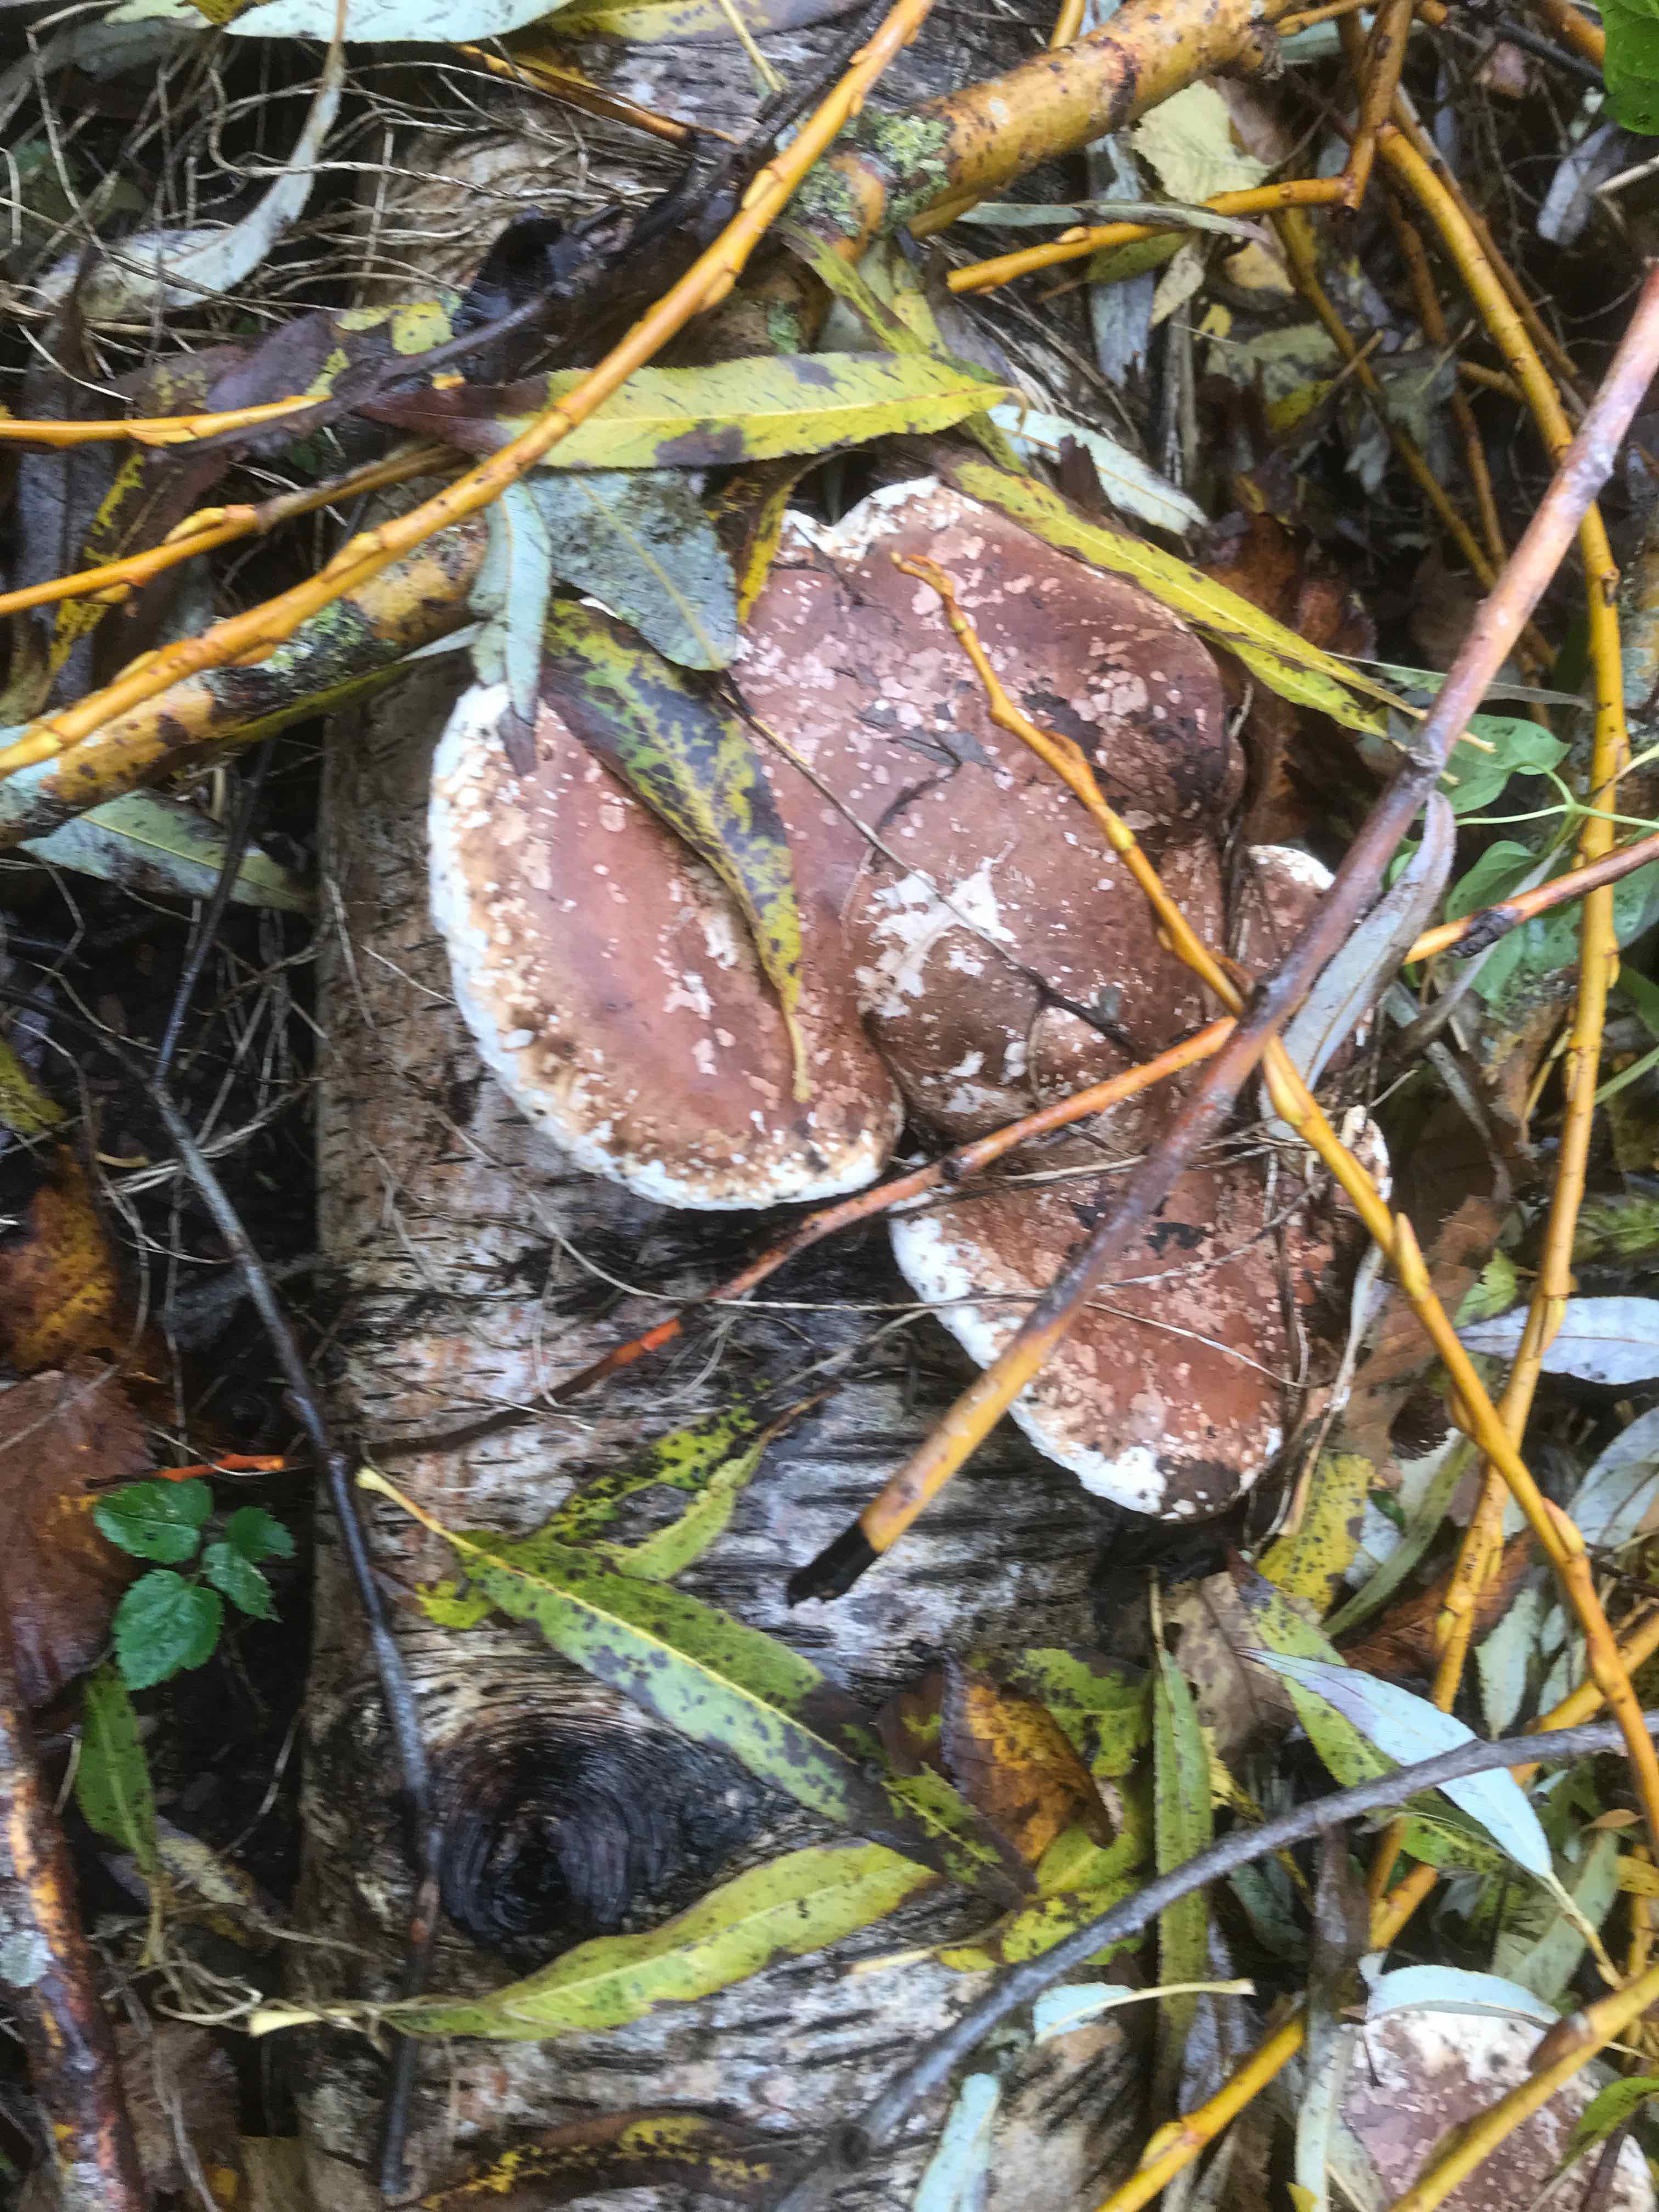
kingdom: Fungi
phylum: Basidiomycota
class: Agaricomycetes
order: Polyporales
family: Fomitopsidaceae
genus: Fomitopsis
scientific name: Fomitopsis betulina
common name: birkeporesvamp
